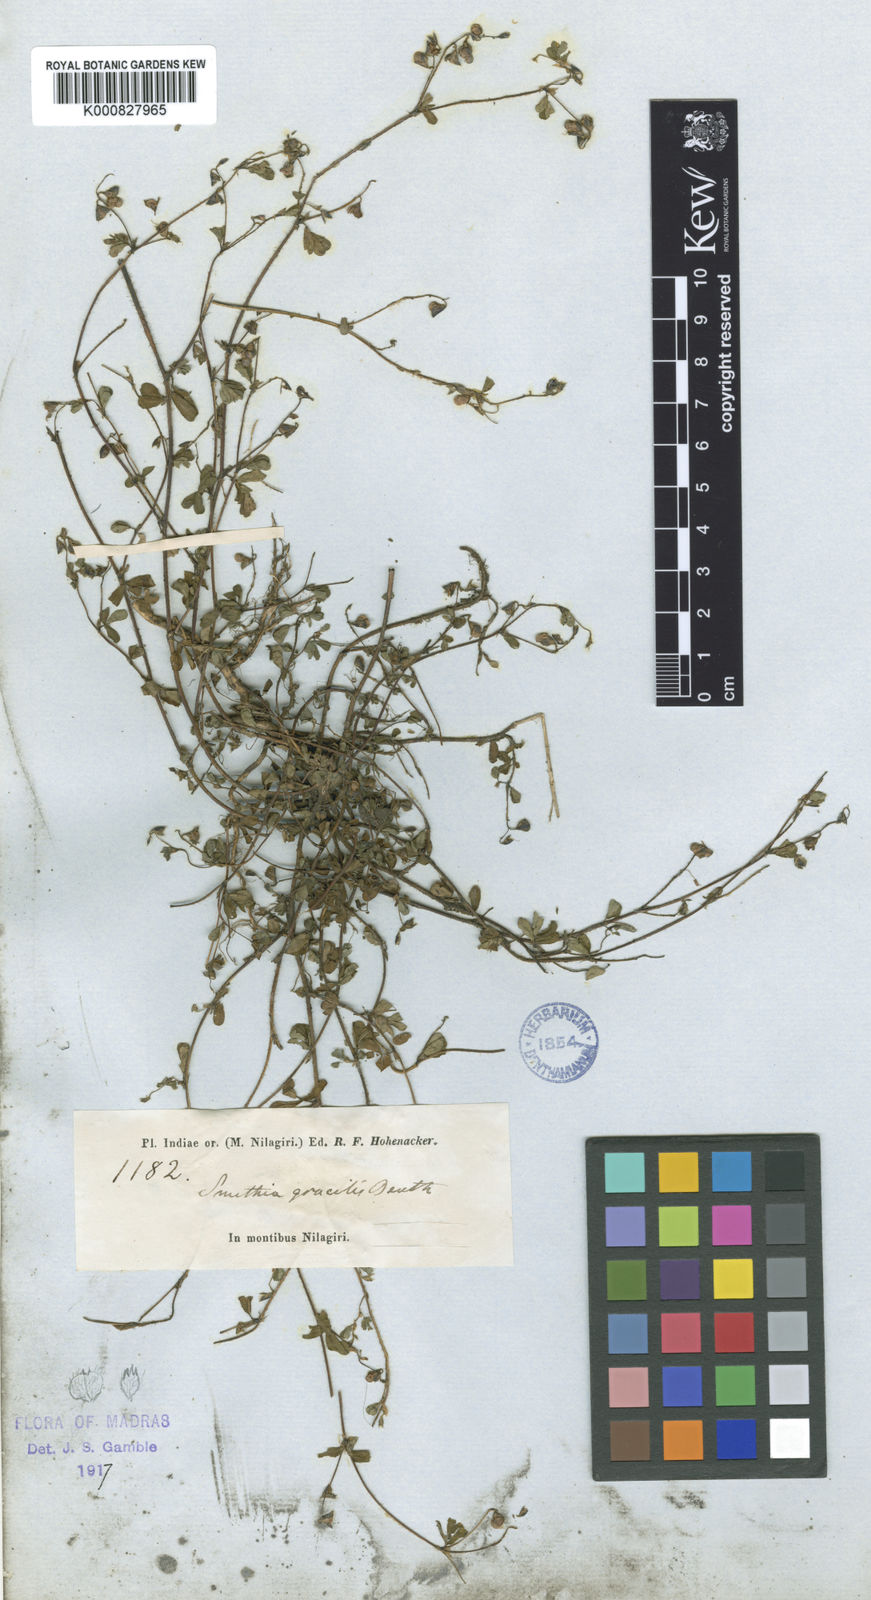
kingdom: Plantae
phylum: Tracheophyta
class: Magnoliopsida
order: Fabales
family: Fabaceae
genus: Smithia
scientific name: Smithia gracilis
